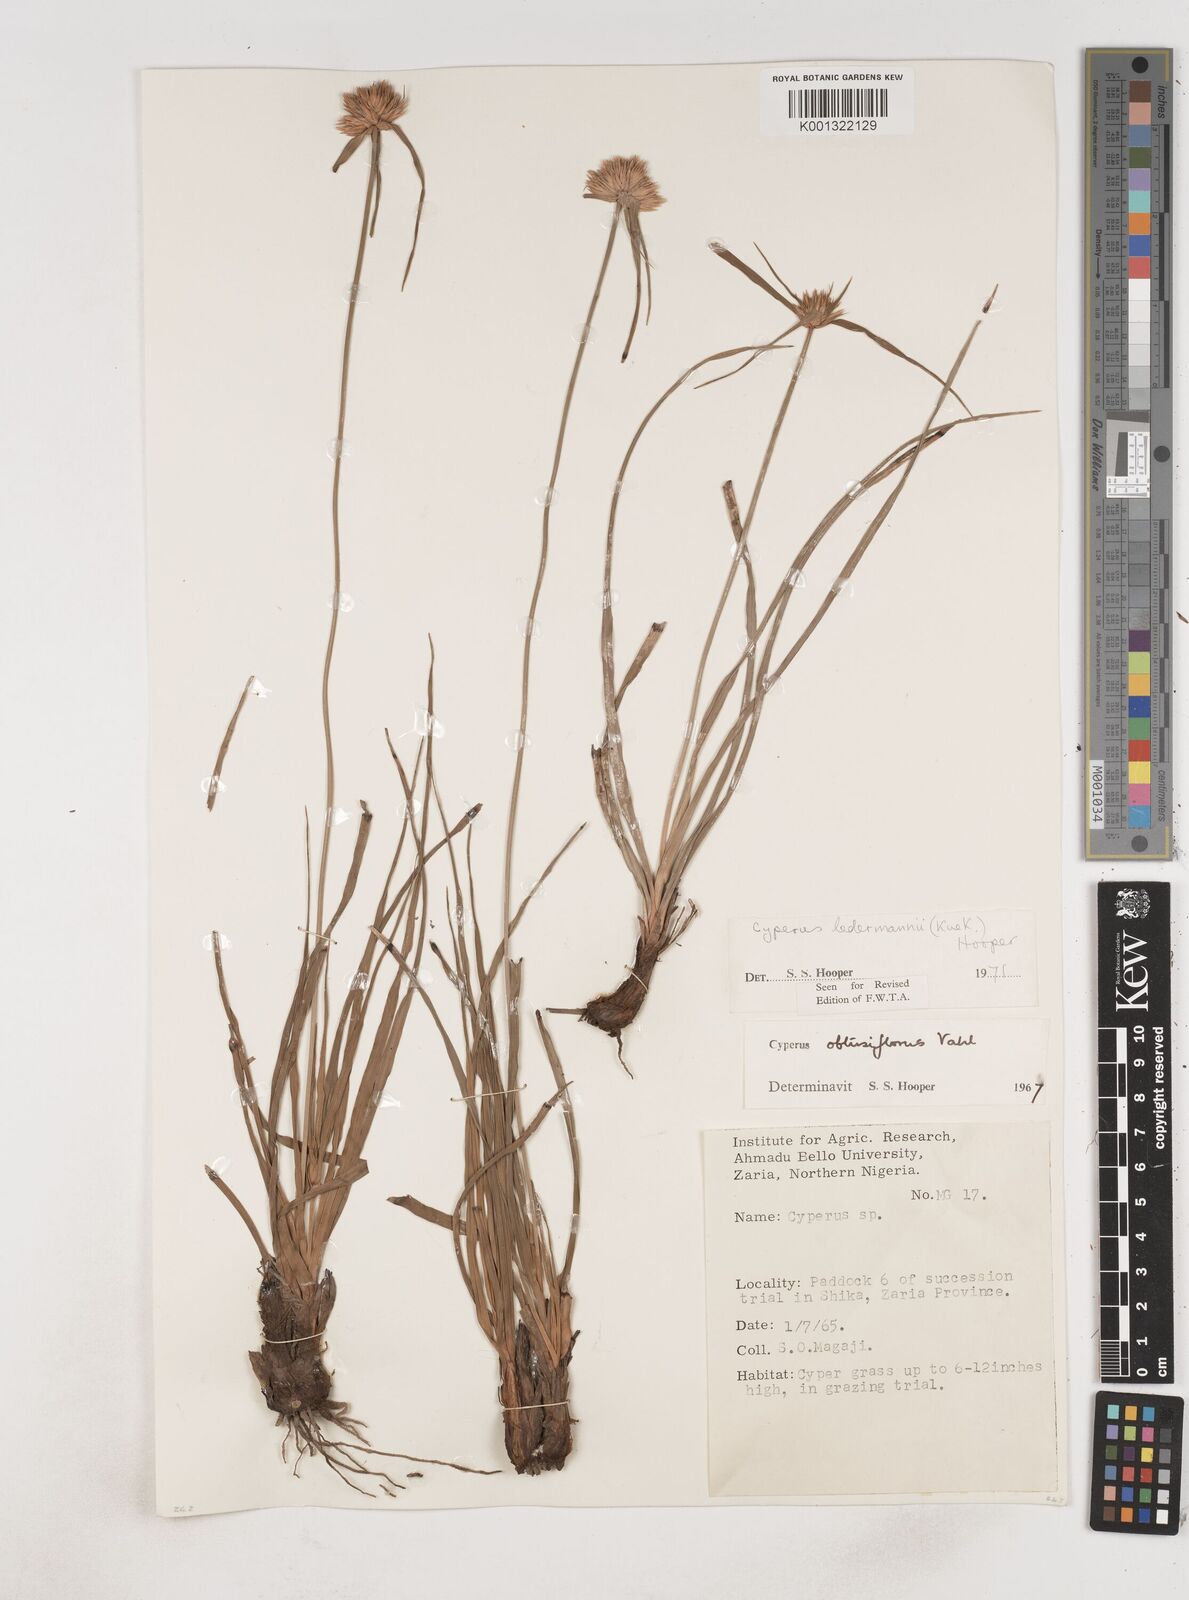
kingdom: Plantae
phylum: Tracheophyta
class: Liliopsida
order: Poales
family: Cyperaceae
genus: Cyperus
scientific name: Cyperus niveus
